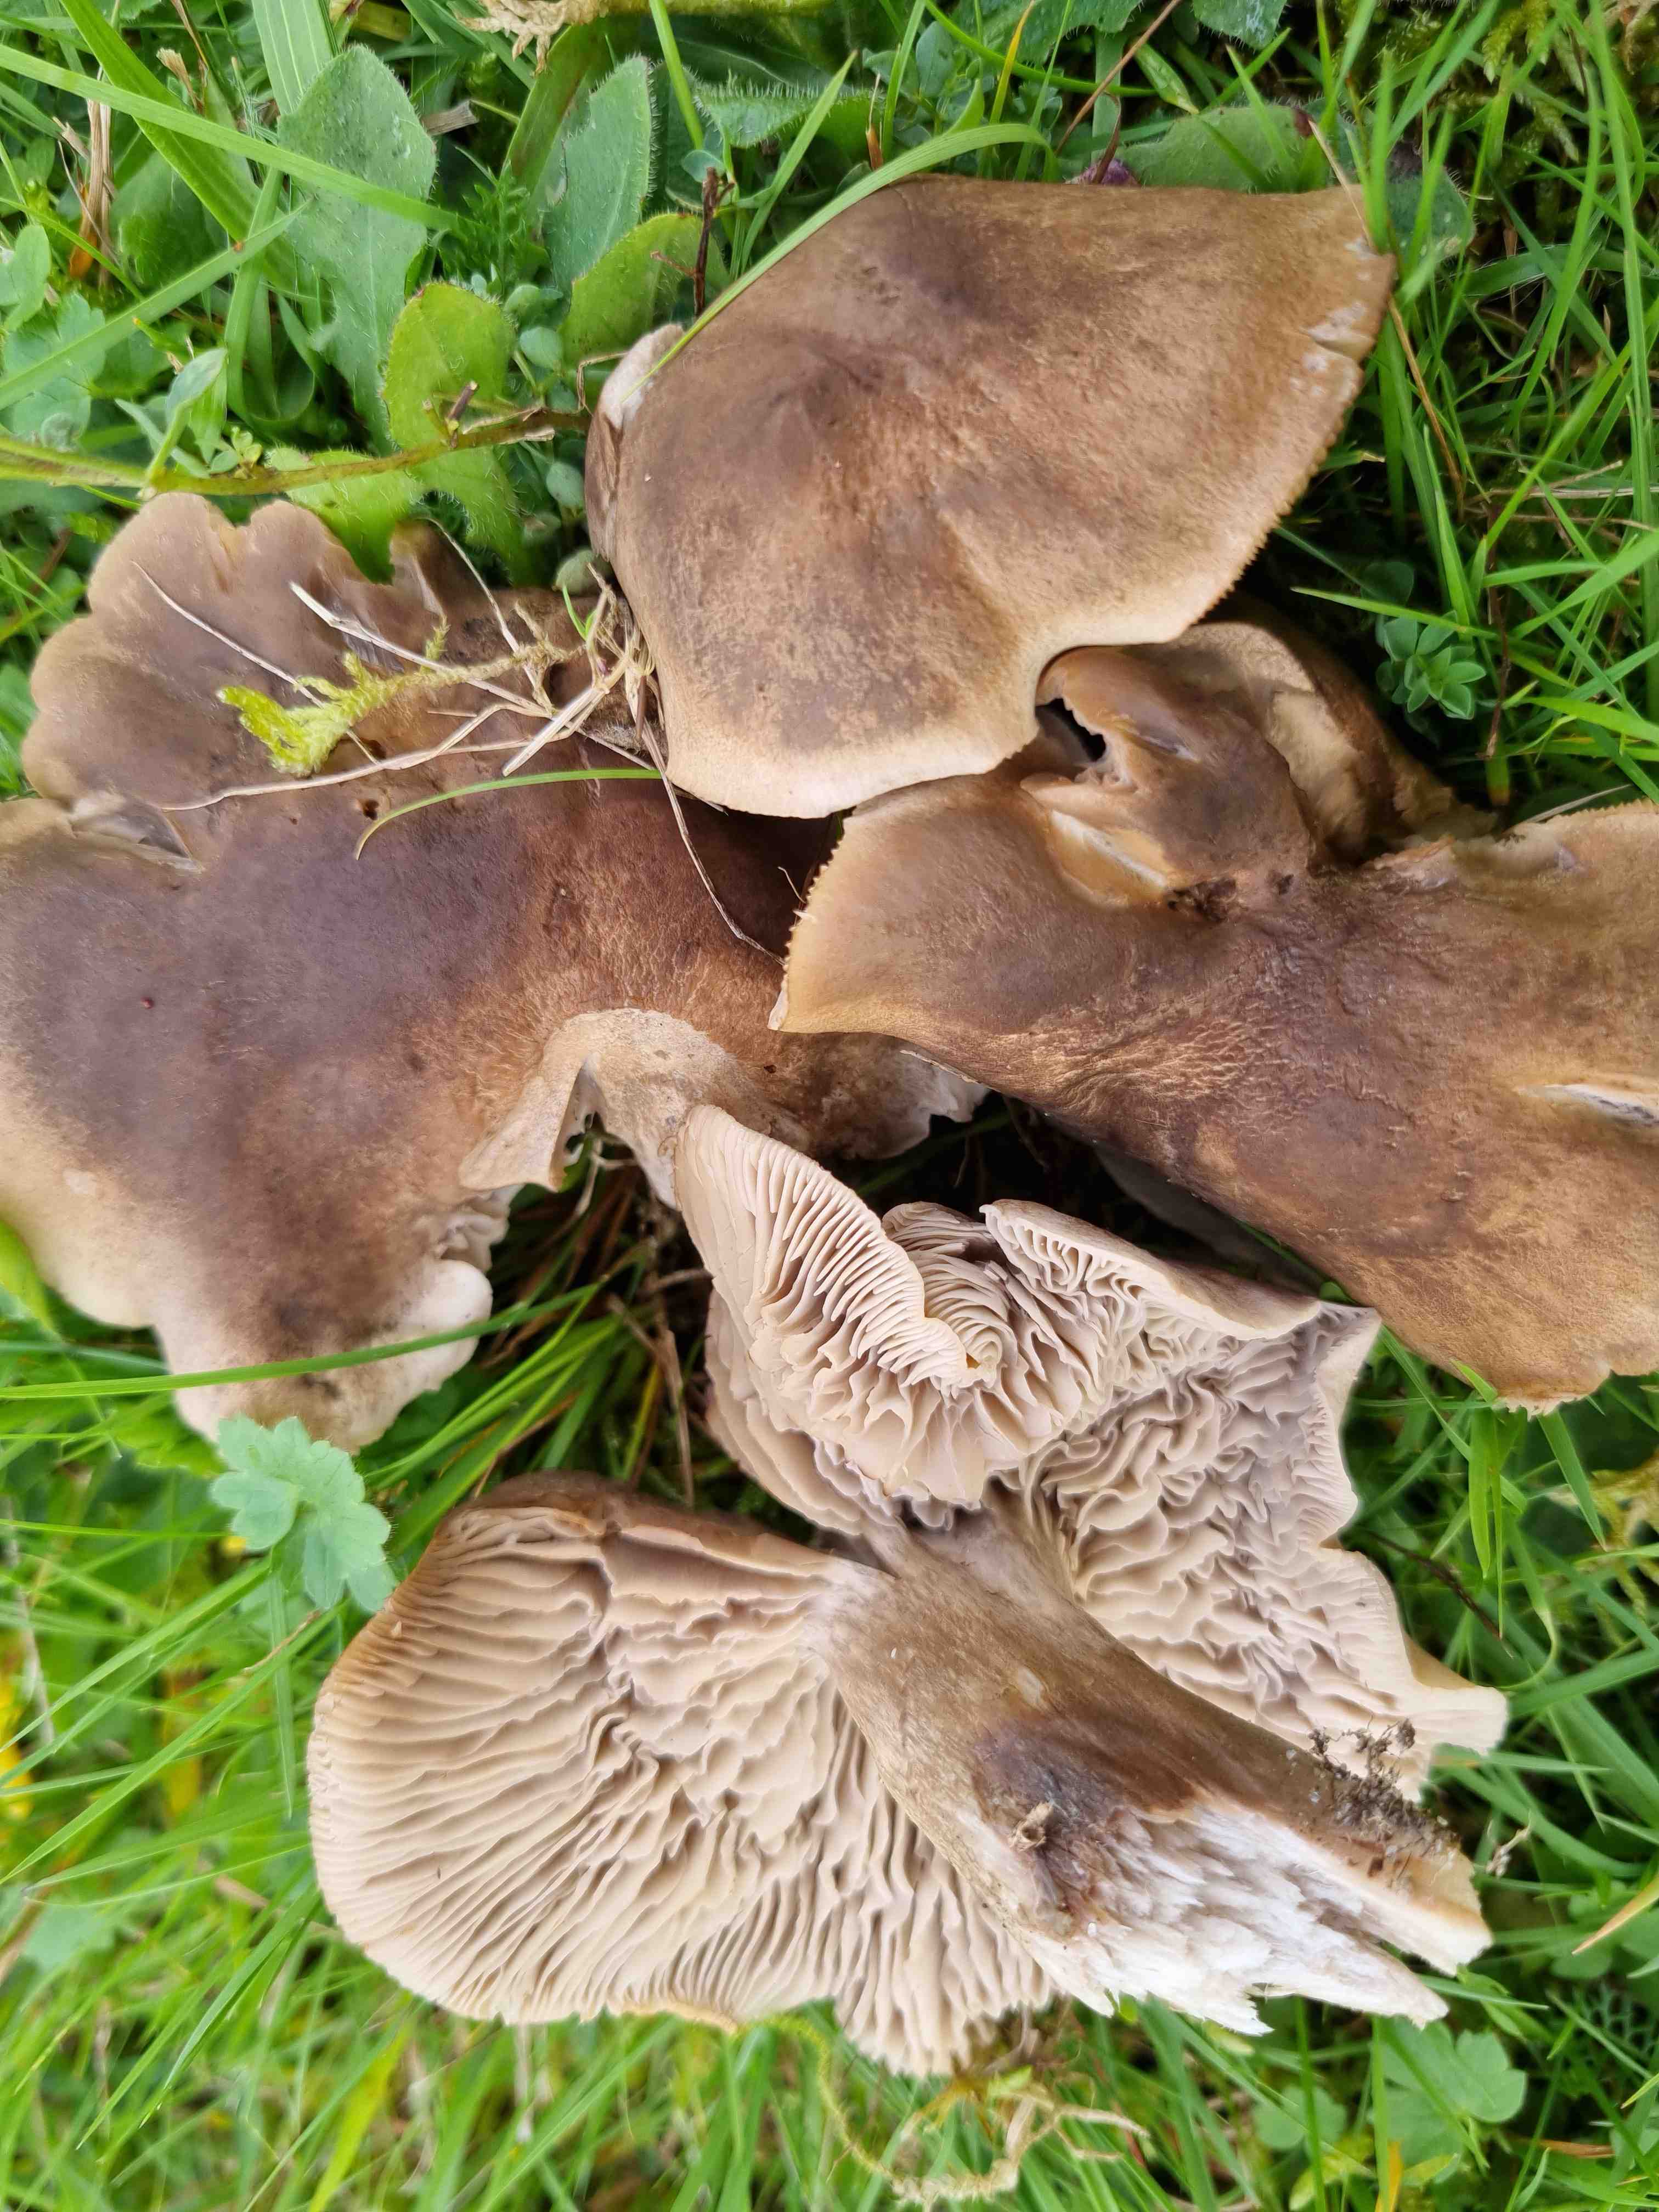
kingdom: Fungi
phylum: Basidiomycota
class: Agaricomycetes
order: Agaricales
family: Tricholomataceae
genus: Pseudotricholoma
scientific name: Pseudotricholoma metapodium
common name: rødmende alfehat
